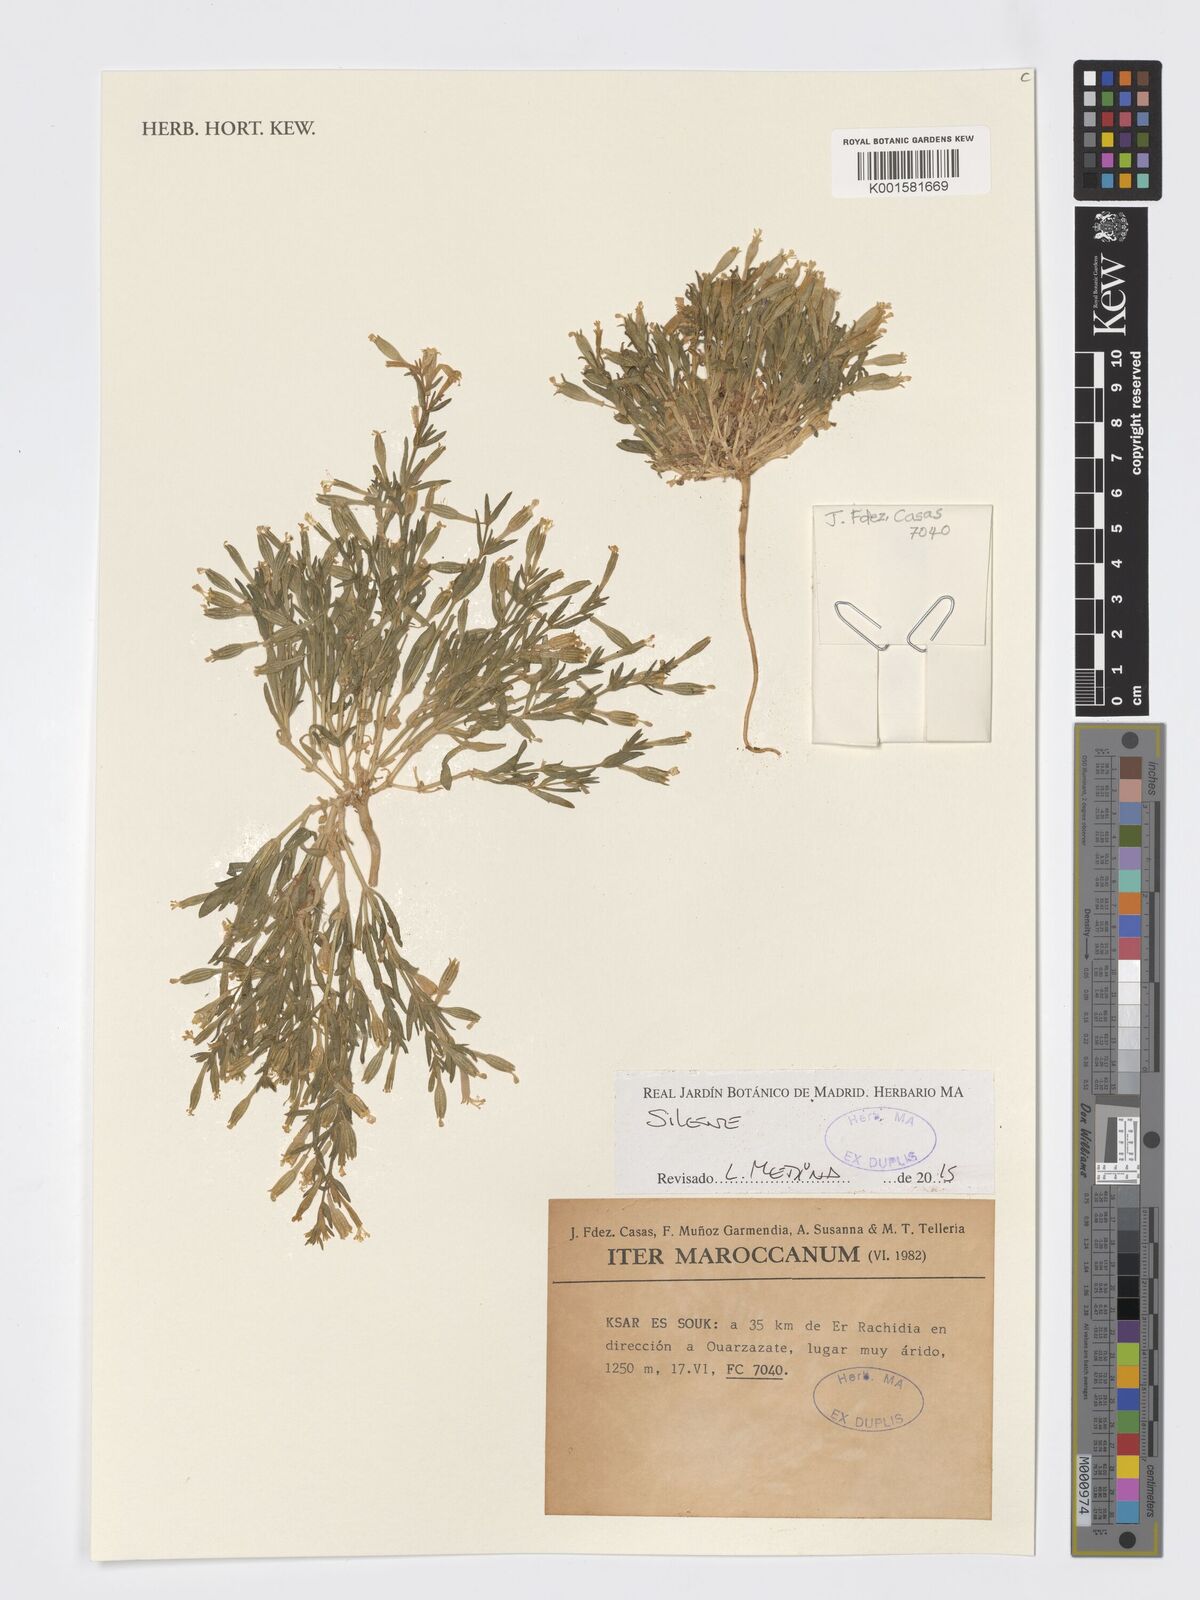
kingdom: Plantae
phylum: Tracheophyta
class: Magnoliopsida
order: Caryophyllales
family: Caryophyllaceae
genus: Silene
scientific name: Silene
